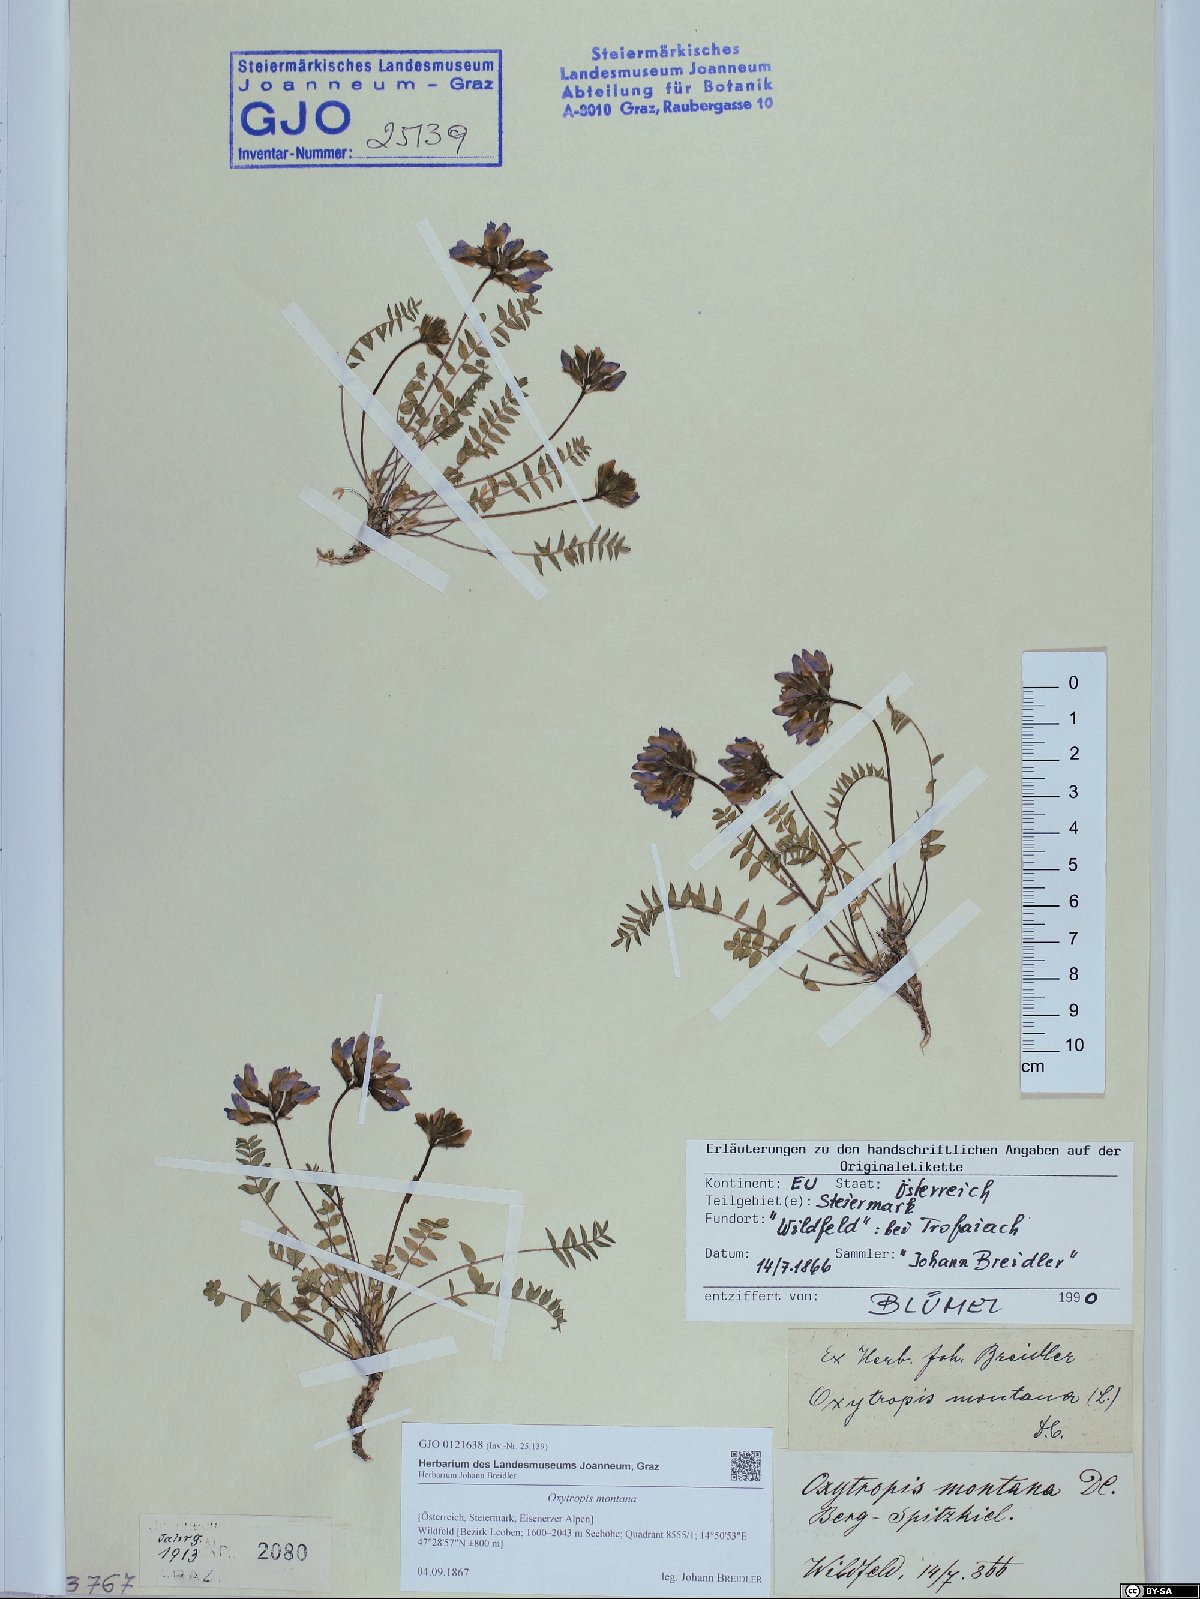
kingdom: Plantae
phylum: Tracheophyta
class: Magnoliopsida
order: Fabales
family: Fabaceae
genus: Oxytropis
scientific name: Oxytropis montana
